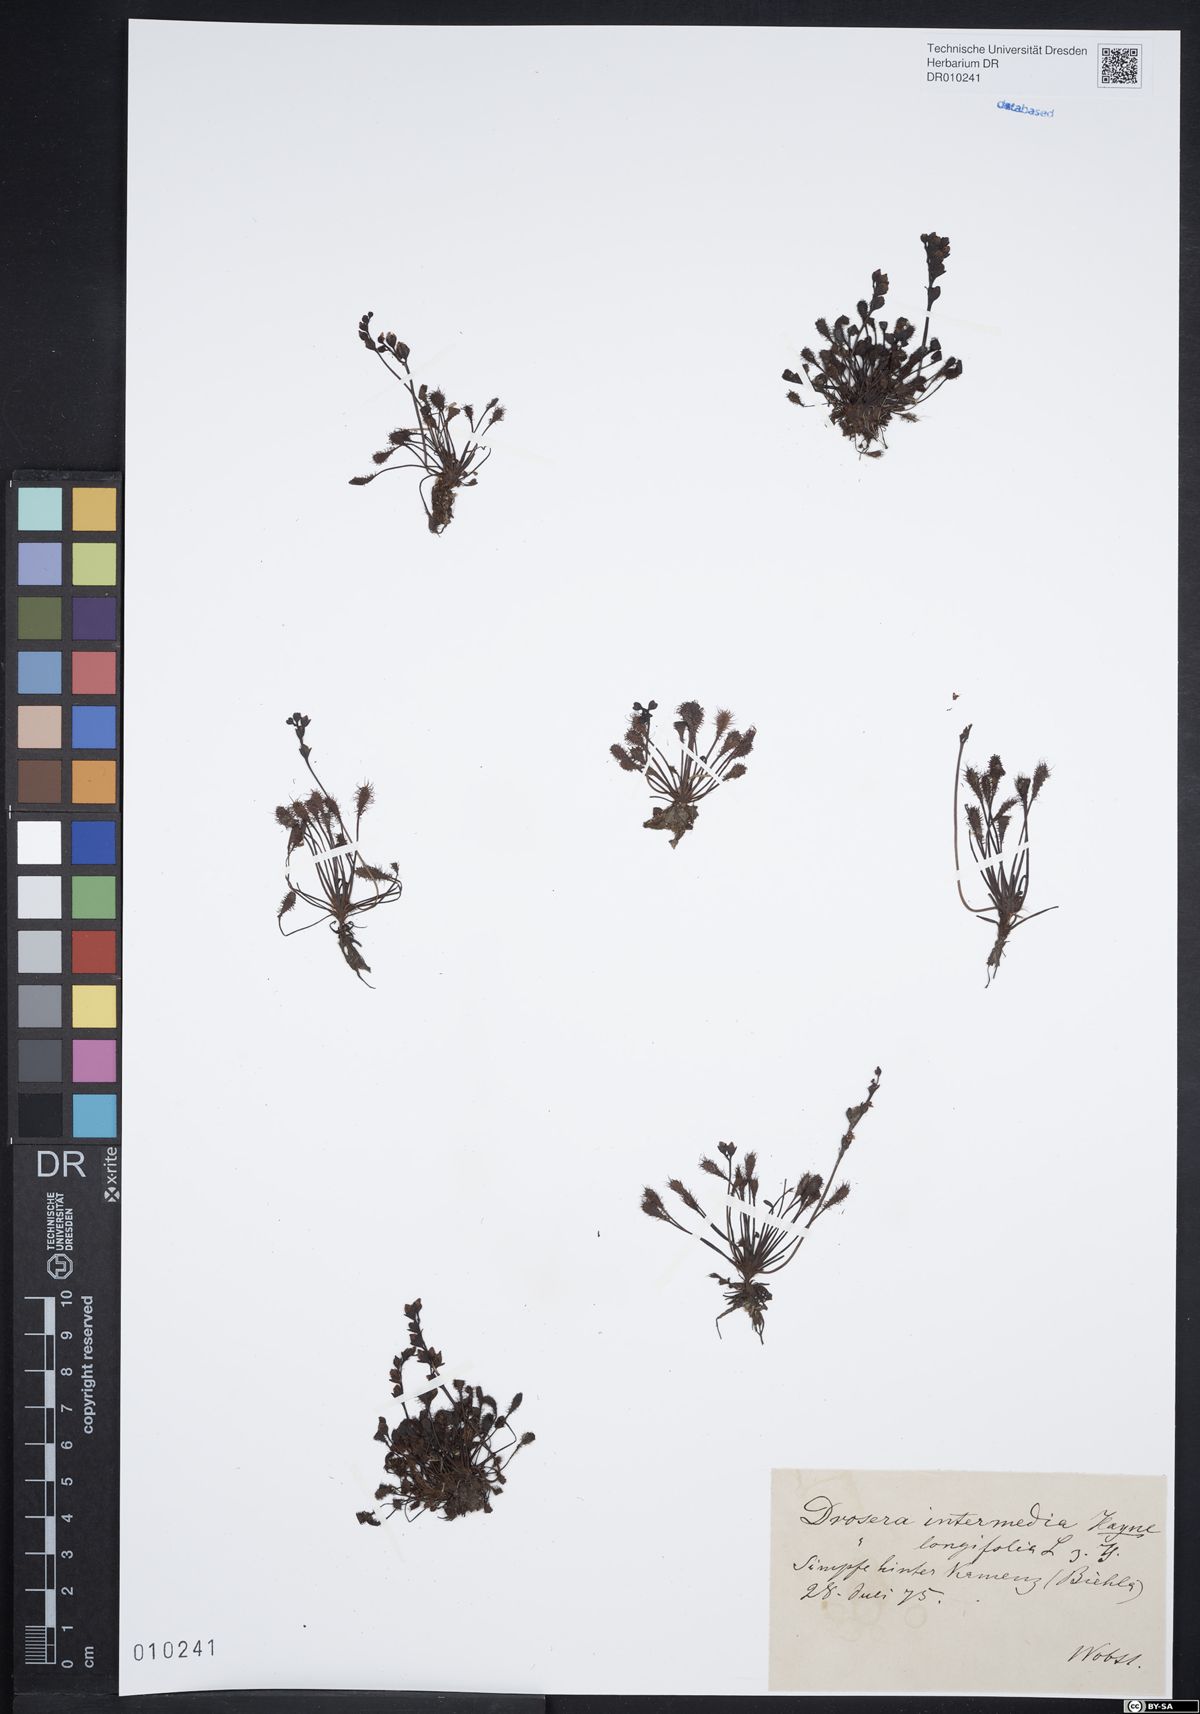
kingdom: Plantae
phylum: Tracheophyta
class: Magnoliopsida
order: Caryophyllales
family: Droseraceae
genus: Drosera
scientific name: Drosera intermedia
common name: Oblong-leaved sundew
